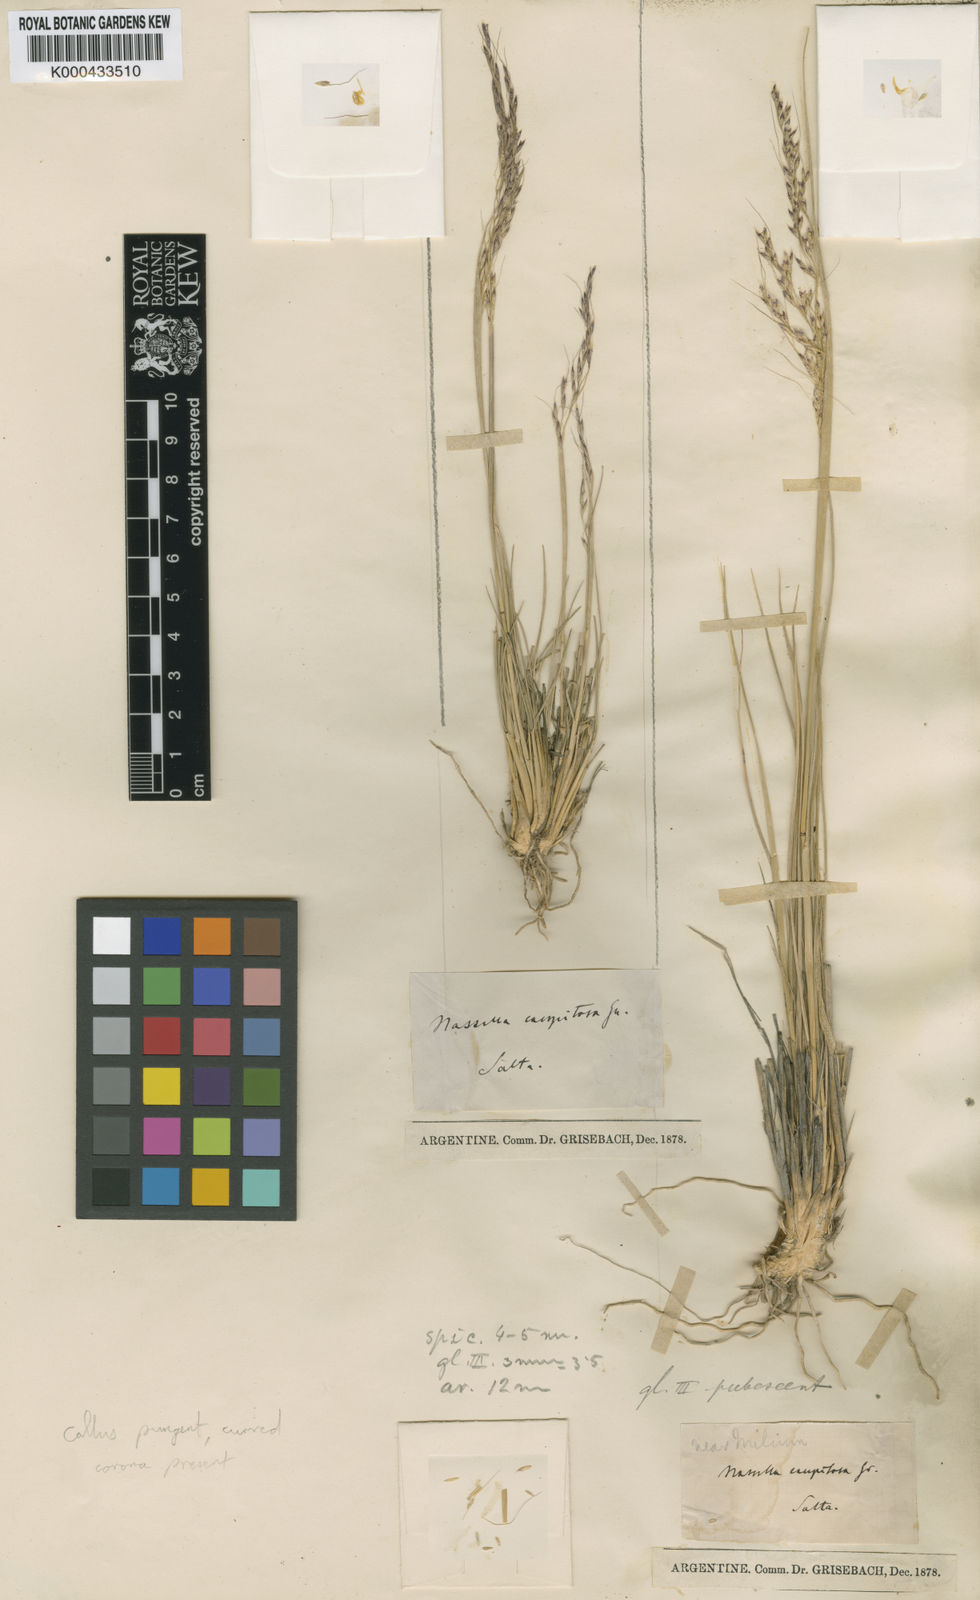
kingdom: Plantae
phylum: Tracheophyta
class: Liliopsida
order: Poales
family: Poaceae
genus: Nassella
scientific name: Nassella caespitosa
